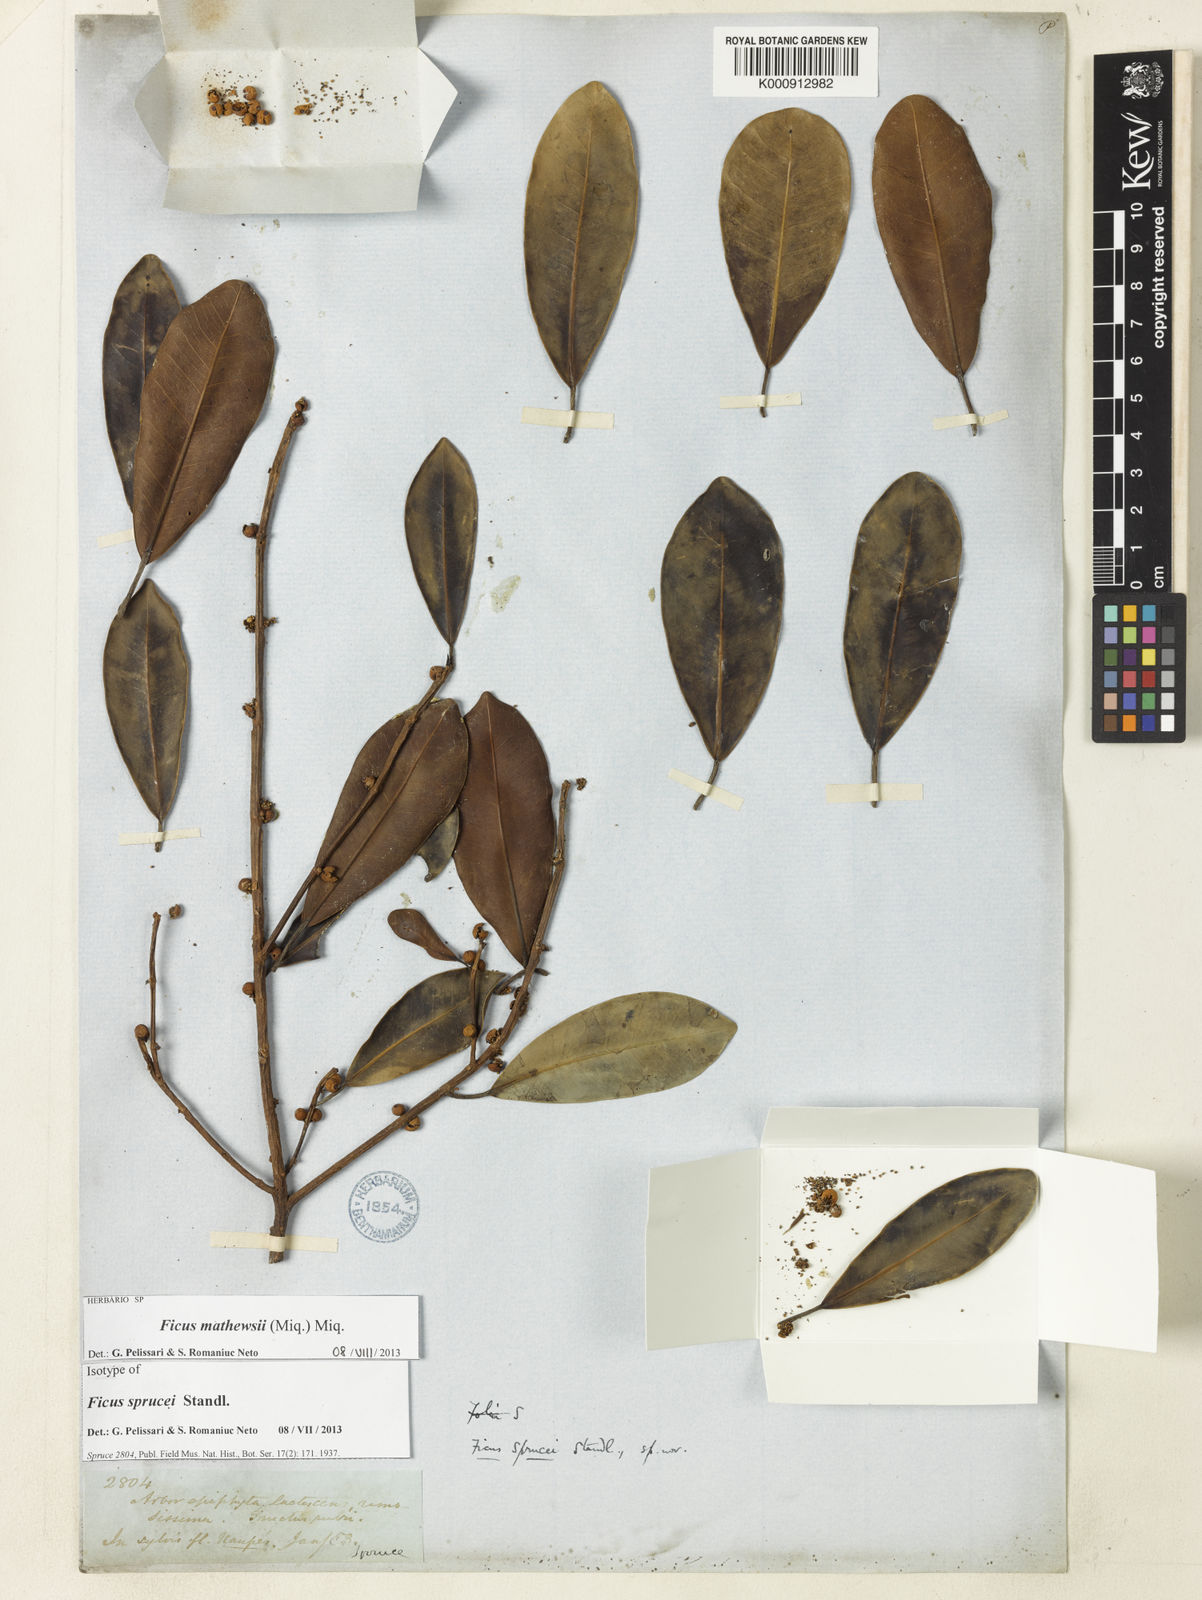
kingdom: Plantae
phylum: Tracheophyta
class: Magnoliopsida
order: Rosales
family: Moraceae
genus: Ficus
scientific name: Ficus mathewsii
